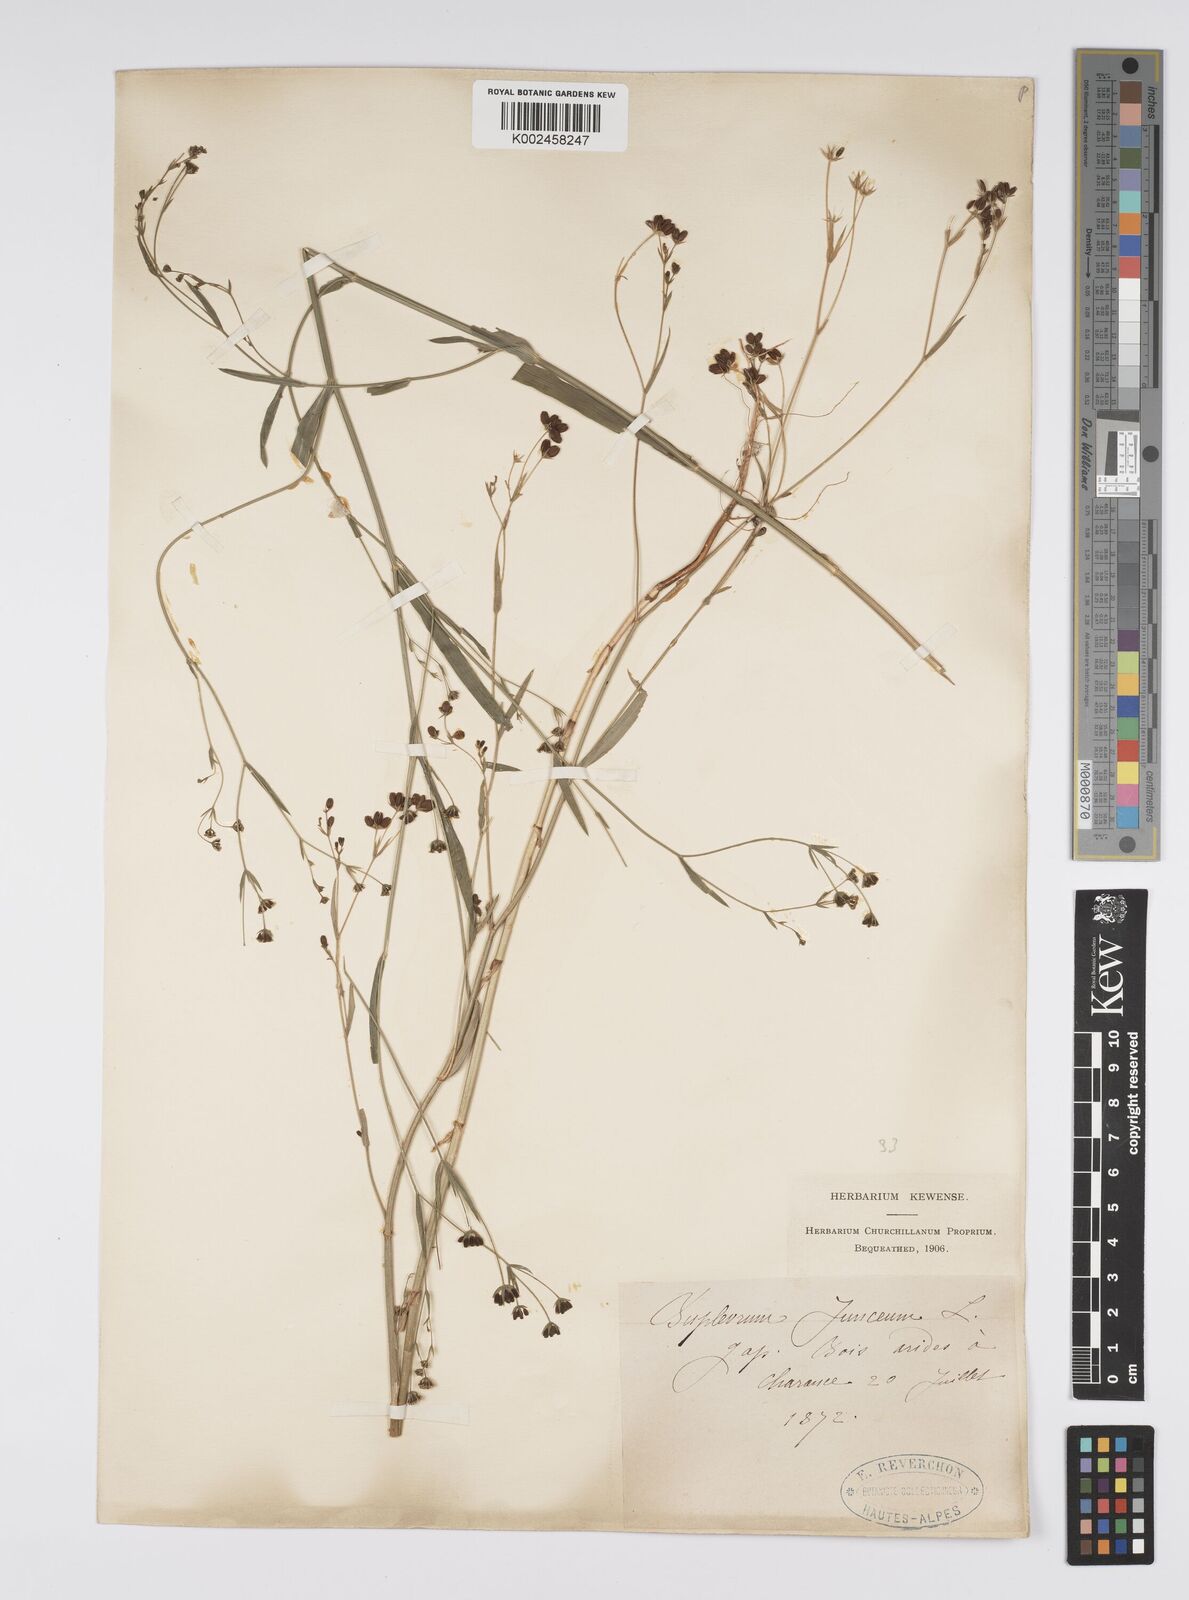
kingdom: Plantae
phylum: Tracheophyta
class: Magnoliopsida
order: Apiales
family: Apiaceae
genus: Bupleurum
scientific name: Bupleurum praealtum
